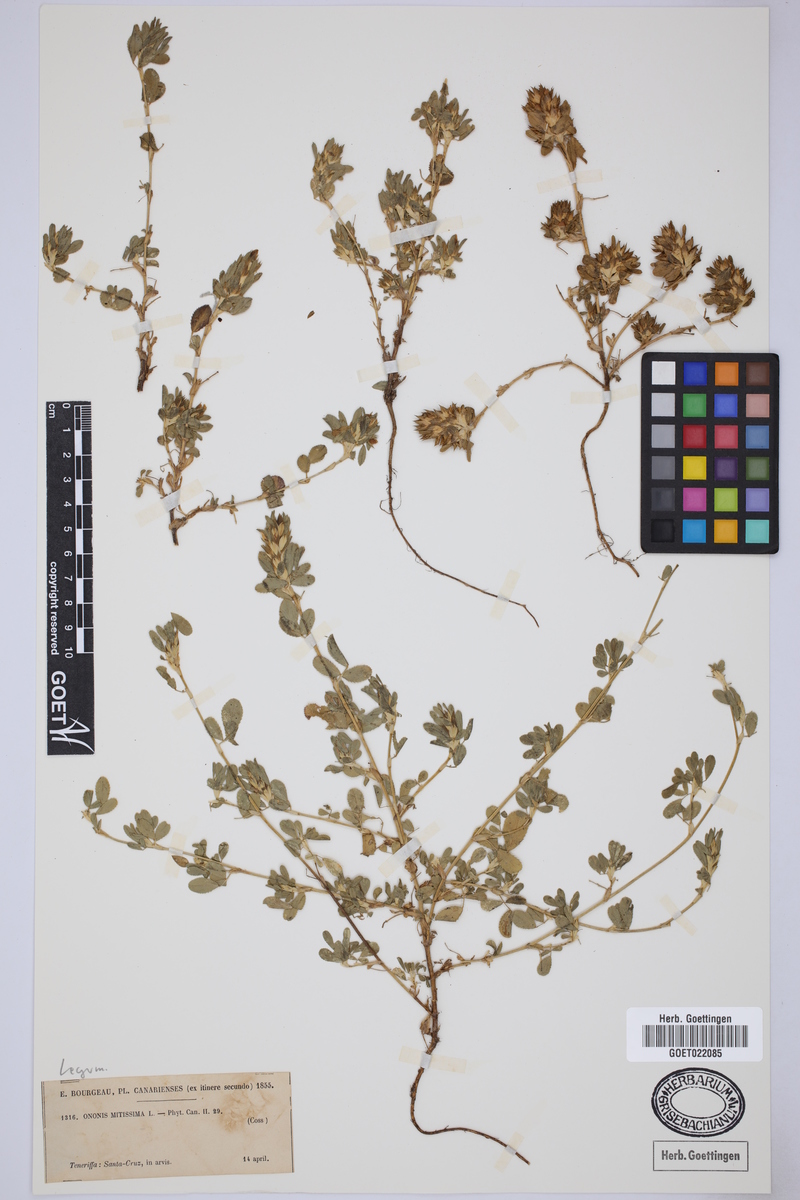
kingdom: Plantae
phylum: Tracheophyta
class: Magnoliopsida
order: Fabales
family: Fabaceae
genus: Ononis
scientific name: Ononis mitissima
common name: Mediterranean restharrow
